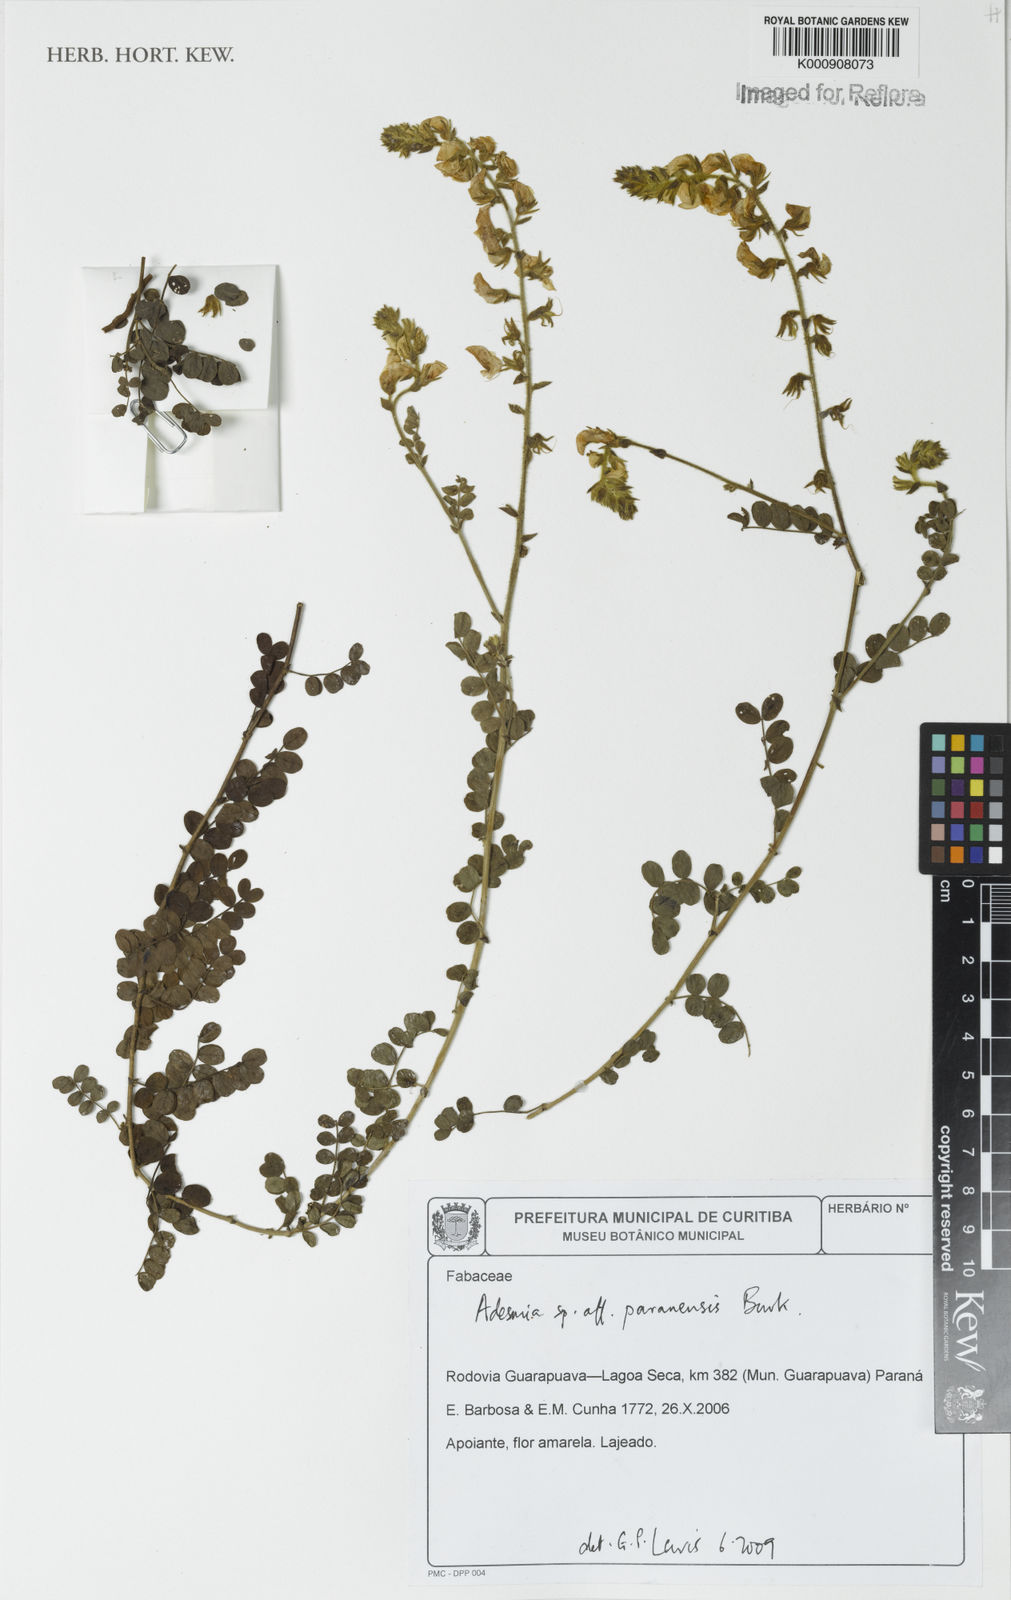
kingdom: Plantae
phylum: Tracheophyta
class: Magnoliopsida
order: Fabales
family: Fabaceae
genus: Adesmia
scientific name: Adesmia paranensis
